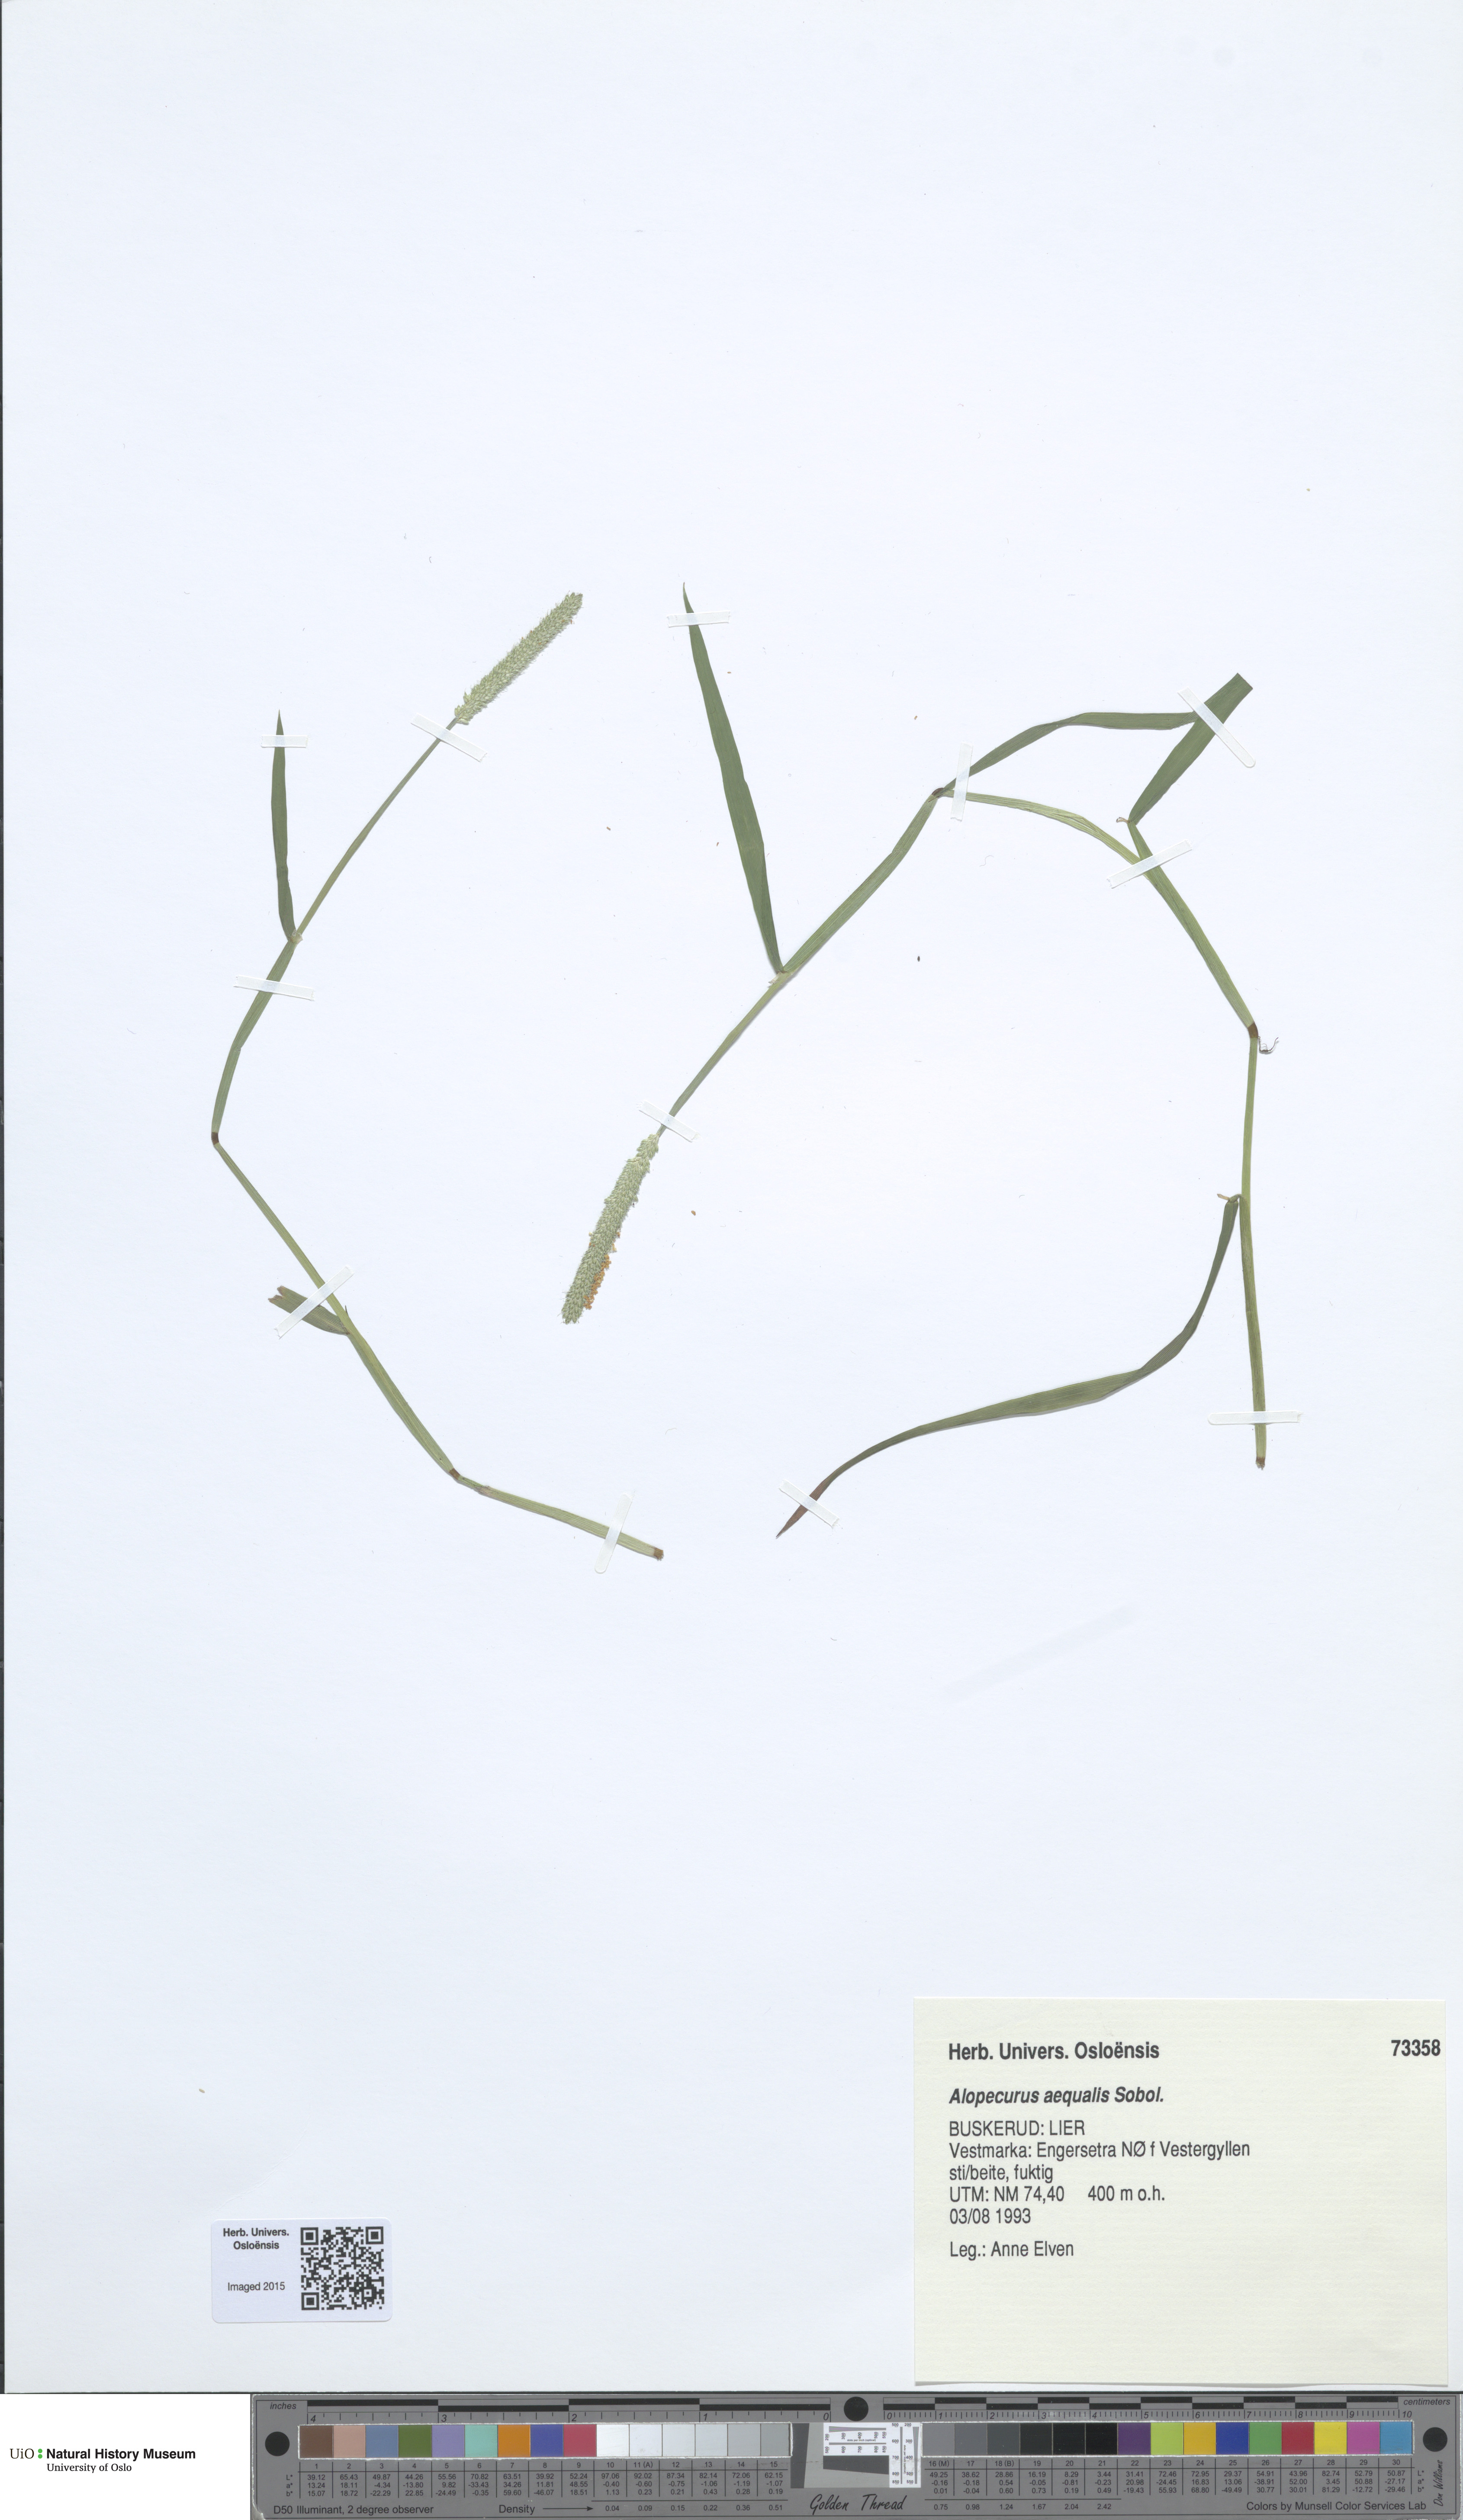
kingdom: Plantae
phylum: Tracheophyta
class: Liliopsida
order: Poales
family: Poaceae
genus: Alopecurus
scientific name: Alopecurus aequalis
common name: Orange foxtail
